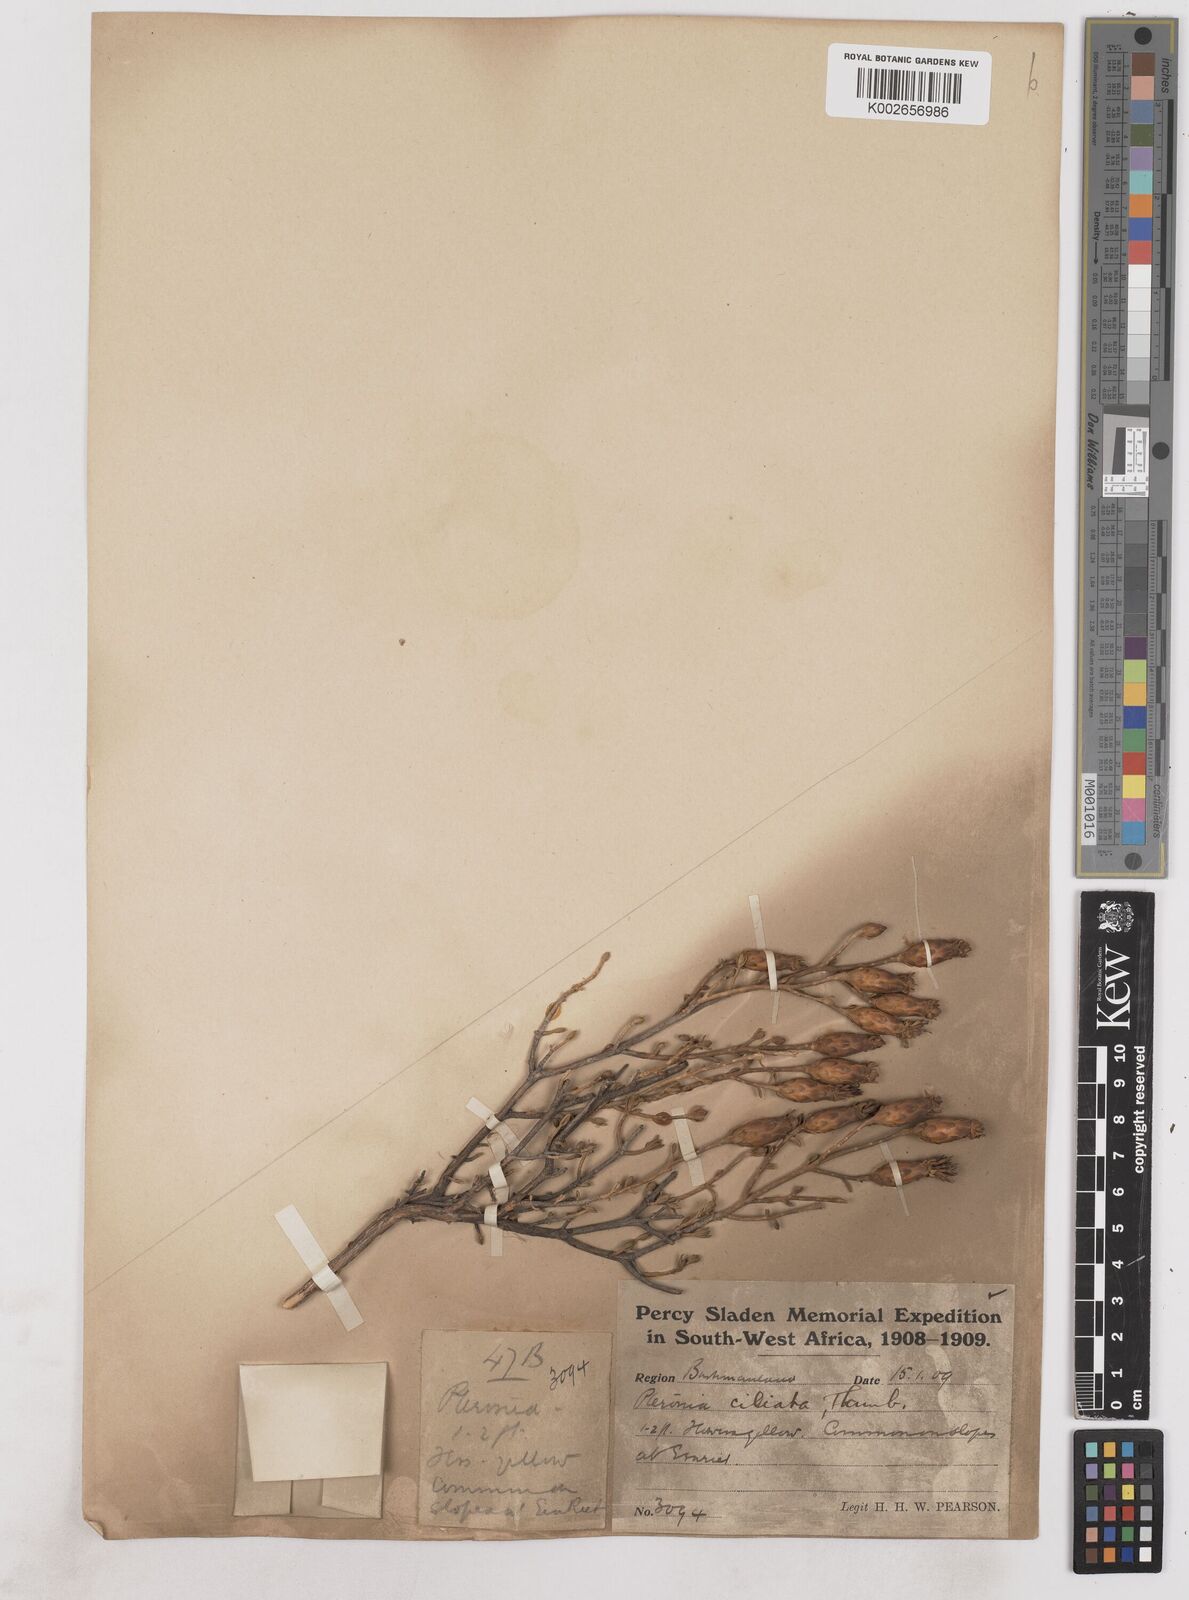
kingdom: Plantae
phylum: Tracheophyta
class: Magnoliopsida
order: Asterales
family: Asteraceae
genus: Pteronia
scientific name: Pteronia ciliata
